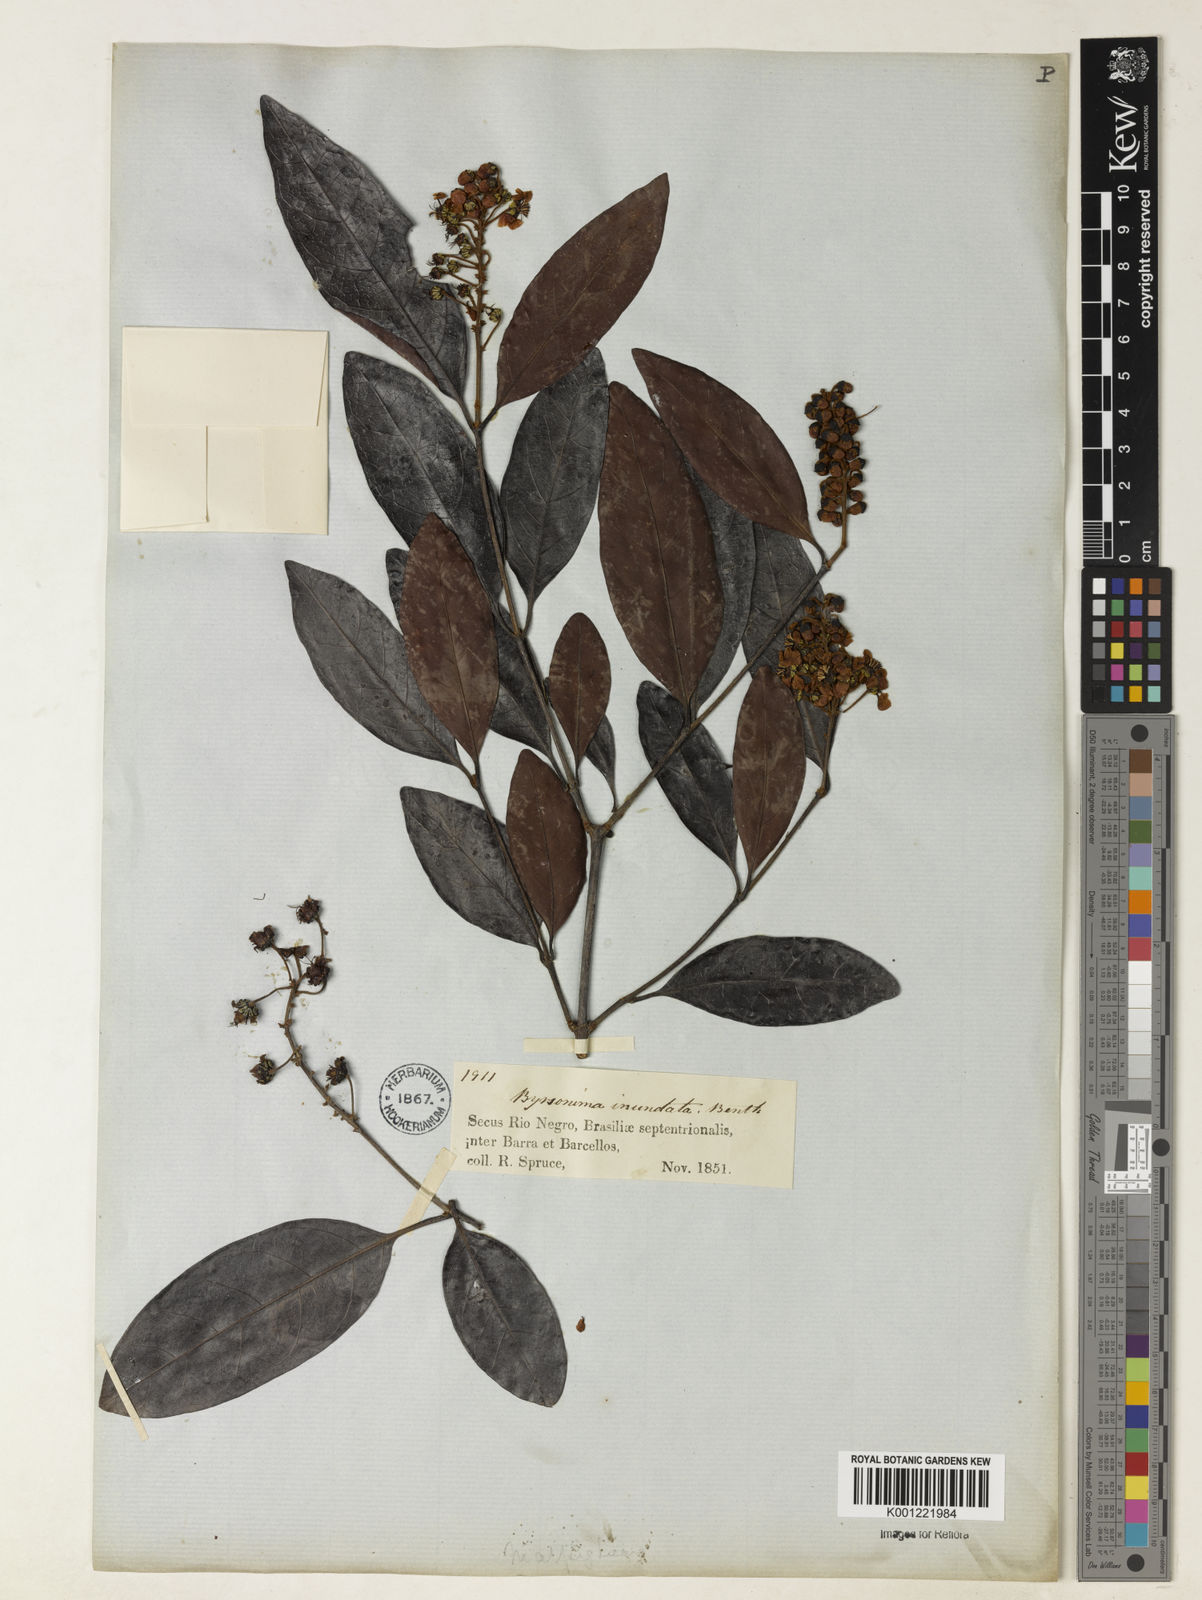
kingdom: Plantae
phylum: Tracheophyta
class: Magnoliopsida
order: Malpighiales
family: Malpighiaceae
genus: Byrsonima
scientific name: Byrsonima japurensis
